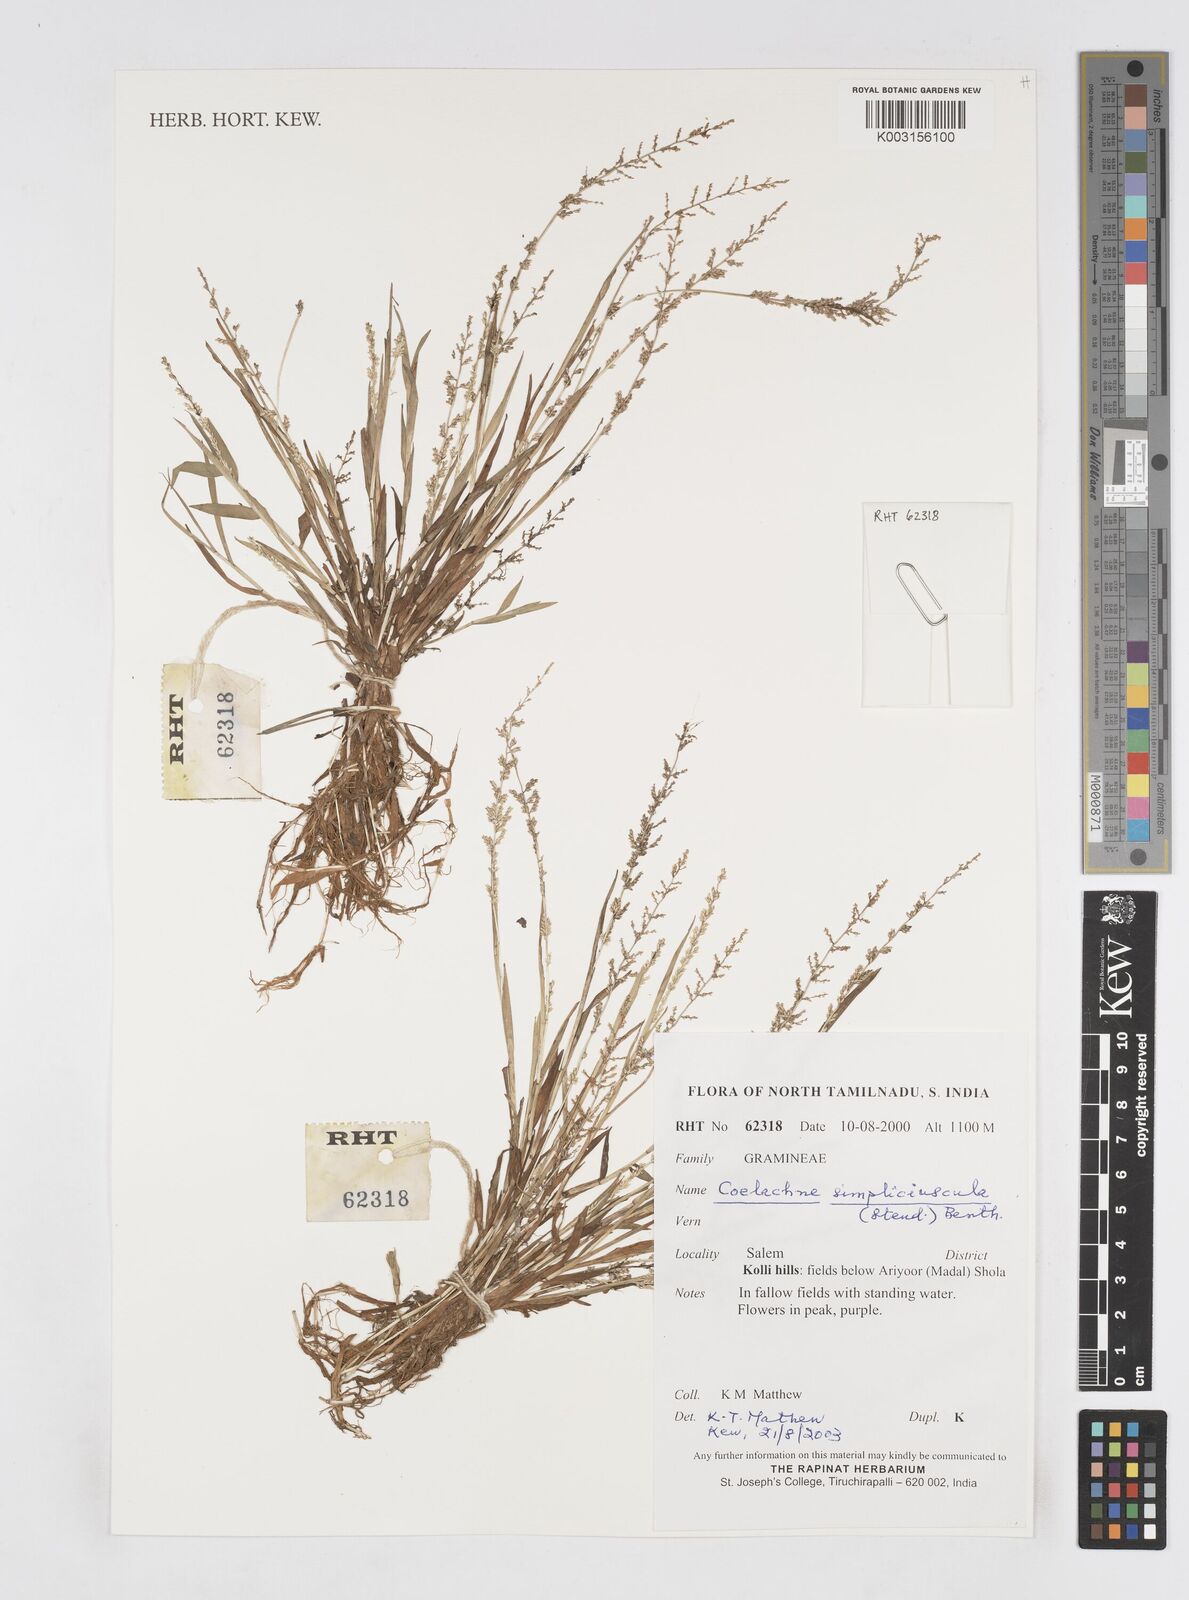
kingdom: Plantae
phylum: Tracheophyta
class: Liliopsida
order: Poales
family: Poaceae
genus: Coelachne
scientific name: Coelachne simpliciuscula
